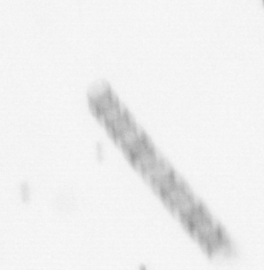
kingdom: Chromista
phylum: Ochrophyta
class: Bacillariophyceae
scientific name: Bacillariophyceae
